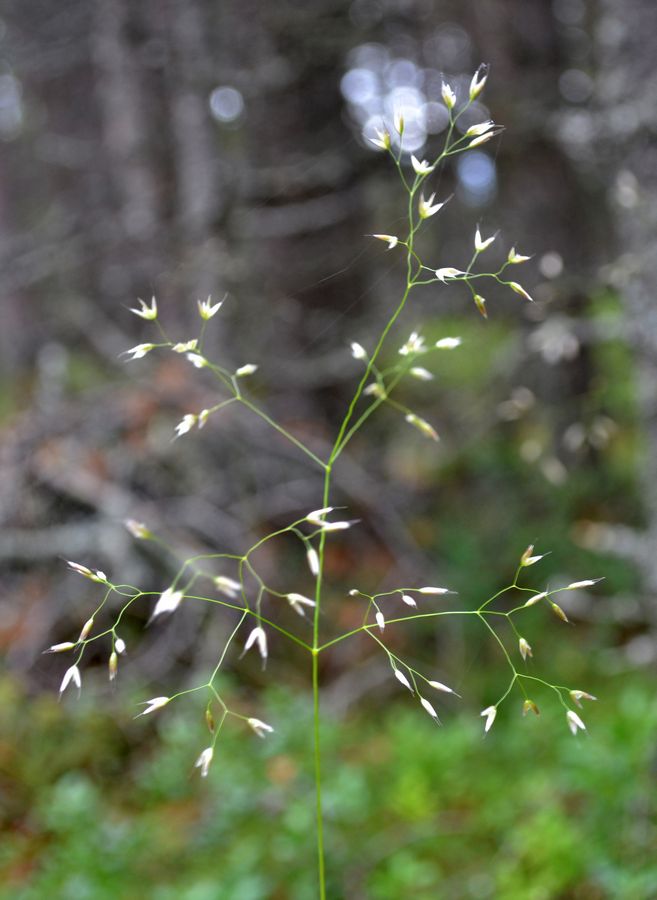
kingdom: Plantae
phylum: Tracheophyta
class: Liliopsida
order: Poales
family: Poaceae
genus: Avenella
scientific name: Avenella flexuosa
